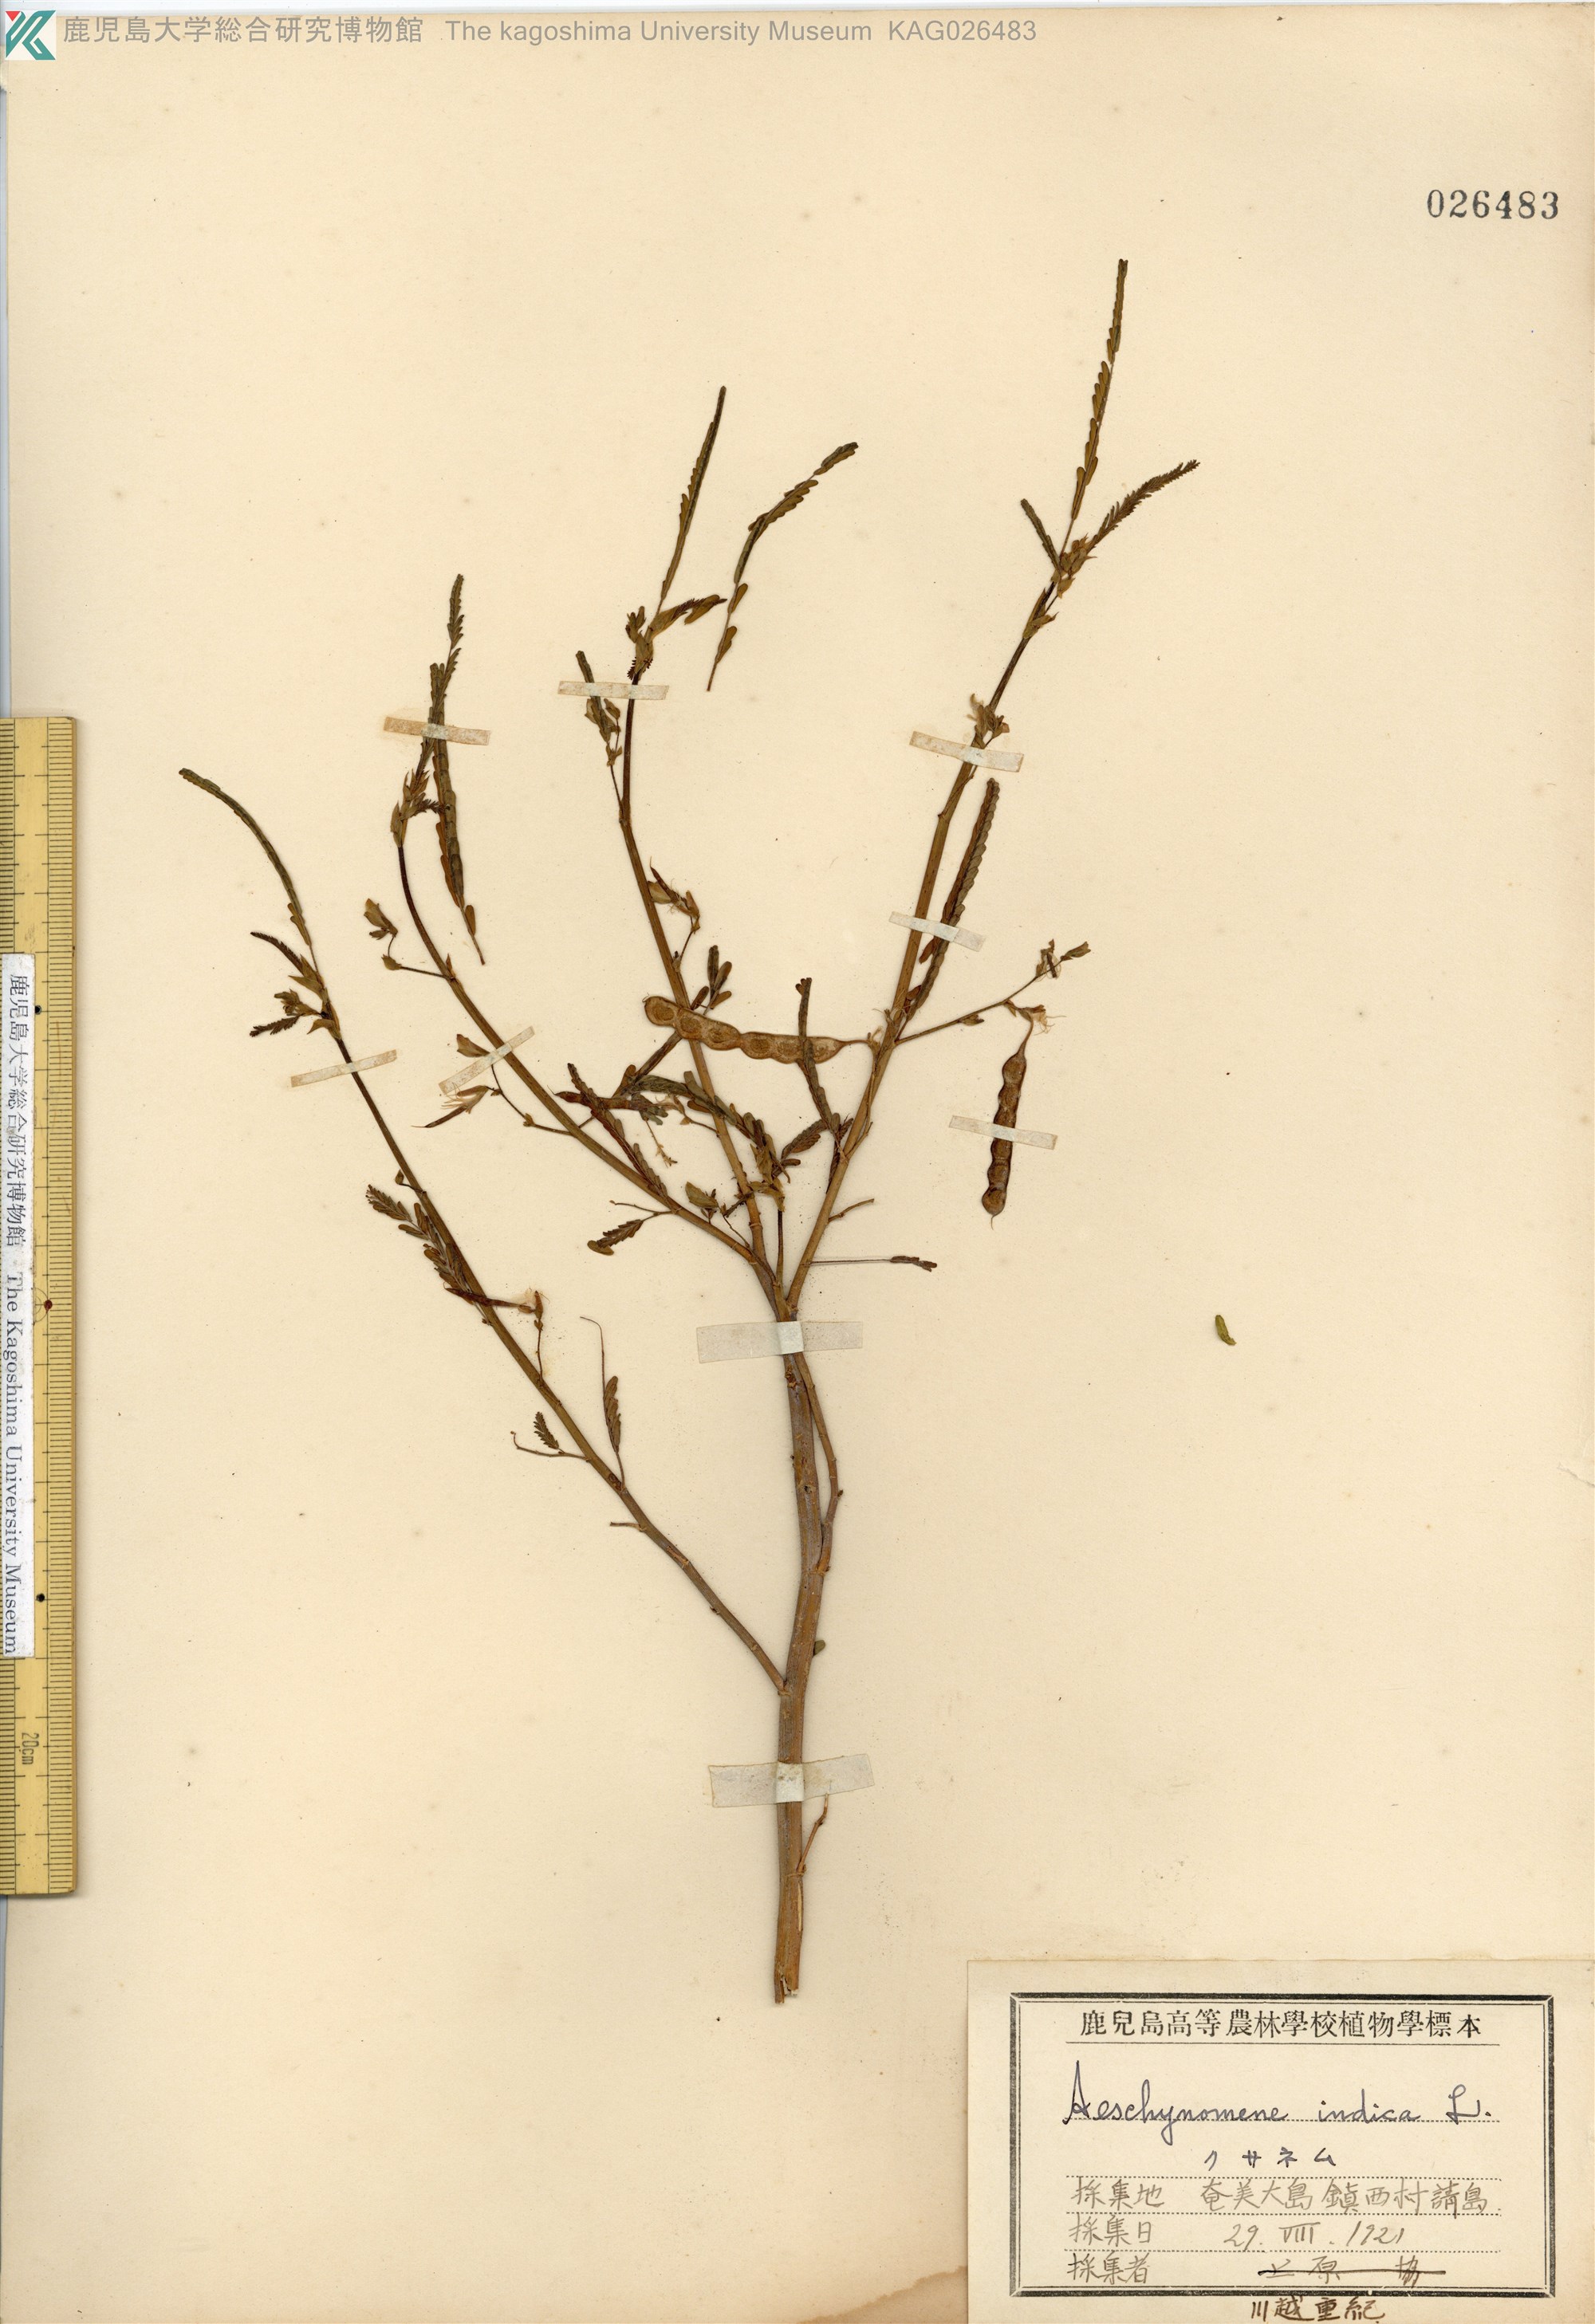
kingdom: Plantae
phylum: Tracheophyta
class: Magnoliopsida
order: Fabales
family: Fabaceae
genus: Aeschynomene
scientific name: Aeschynomene indica
